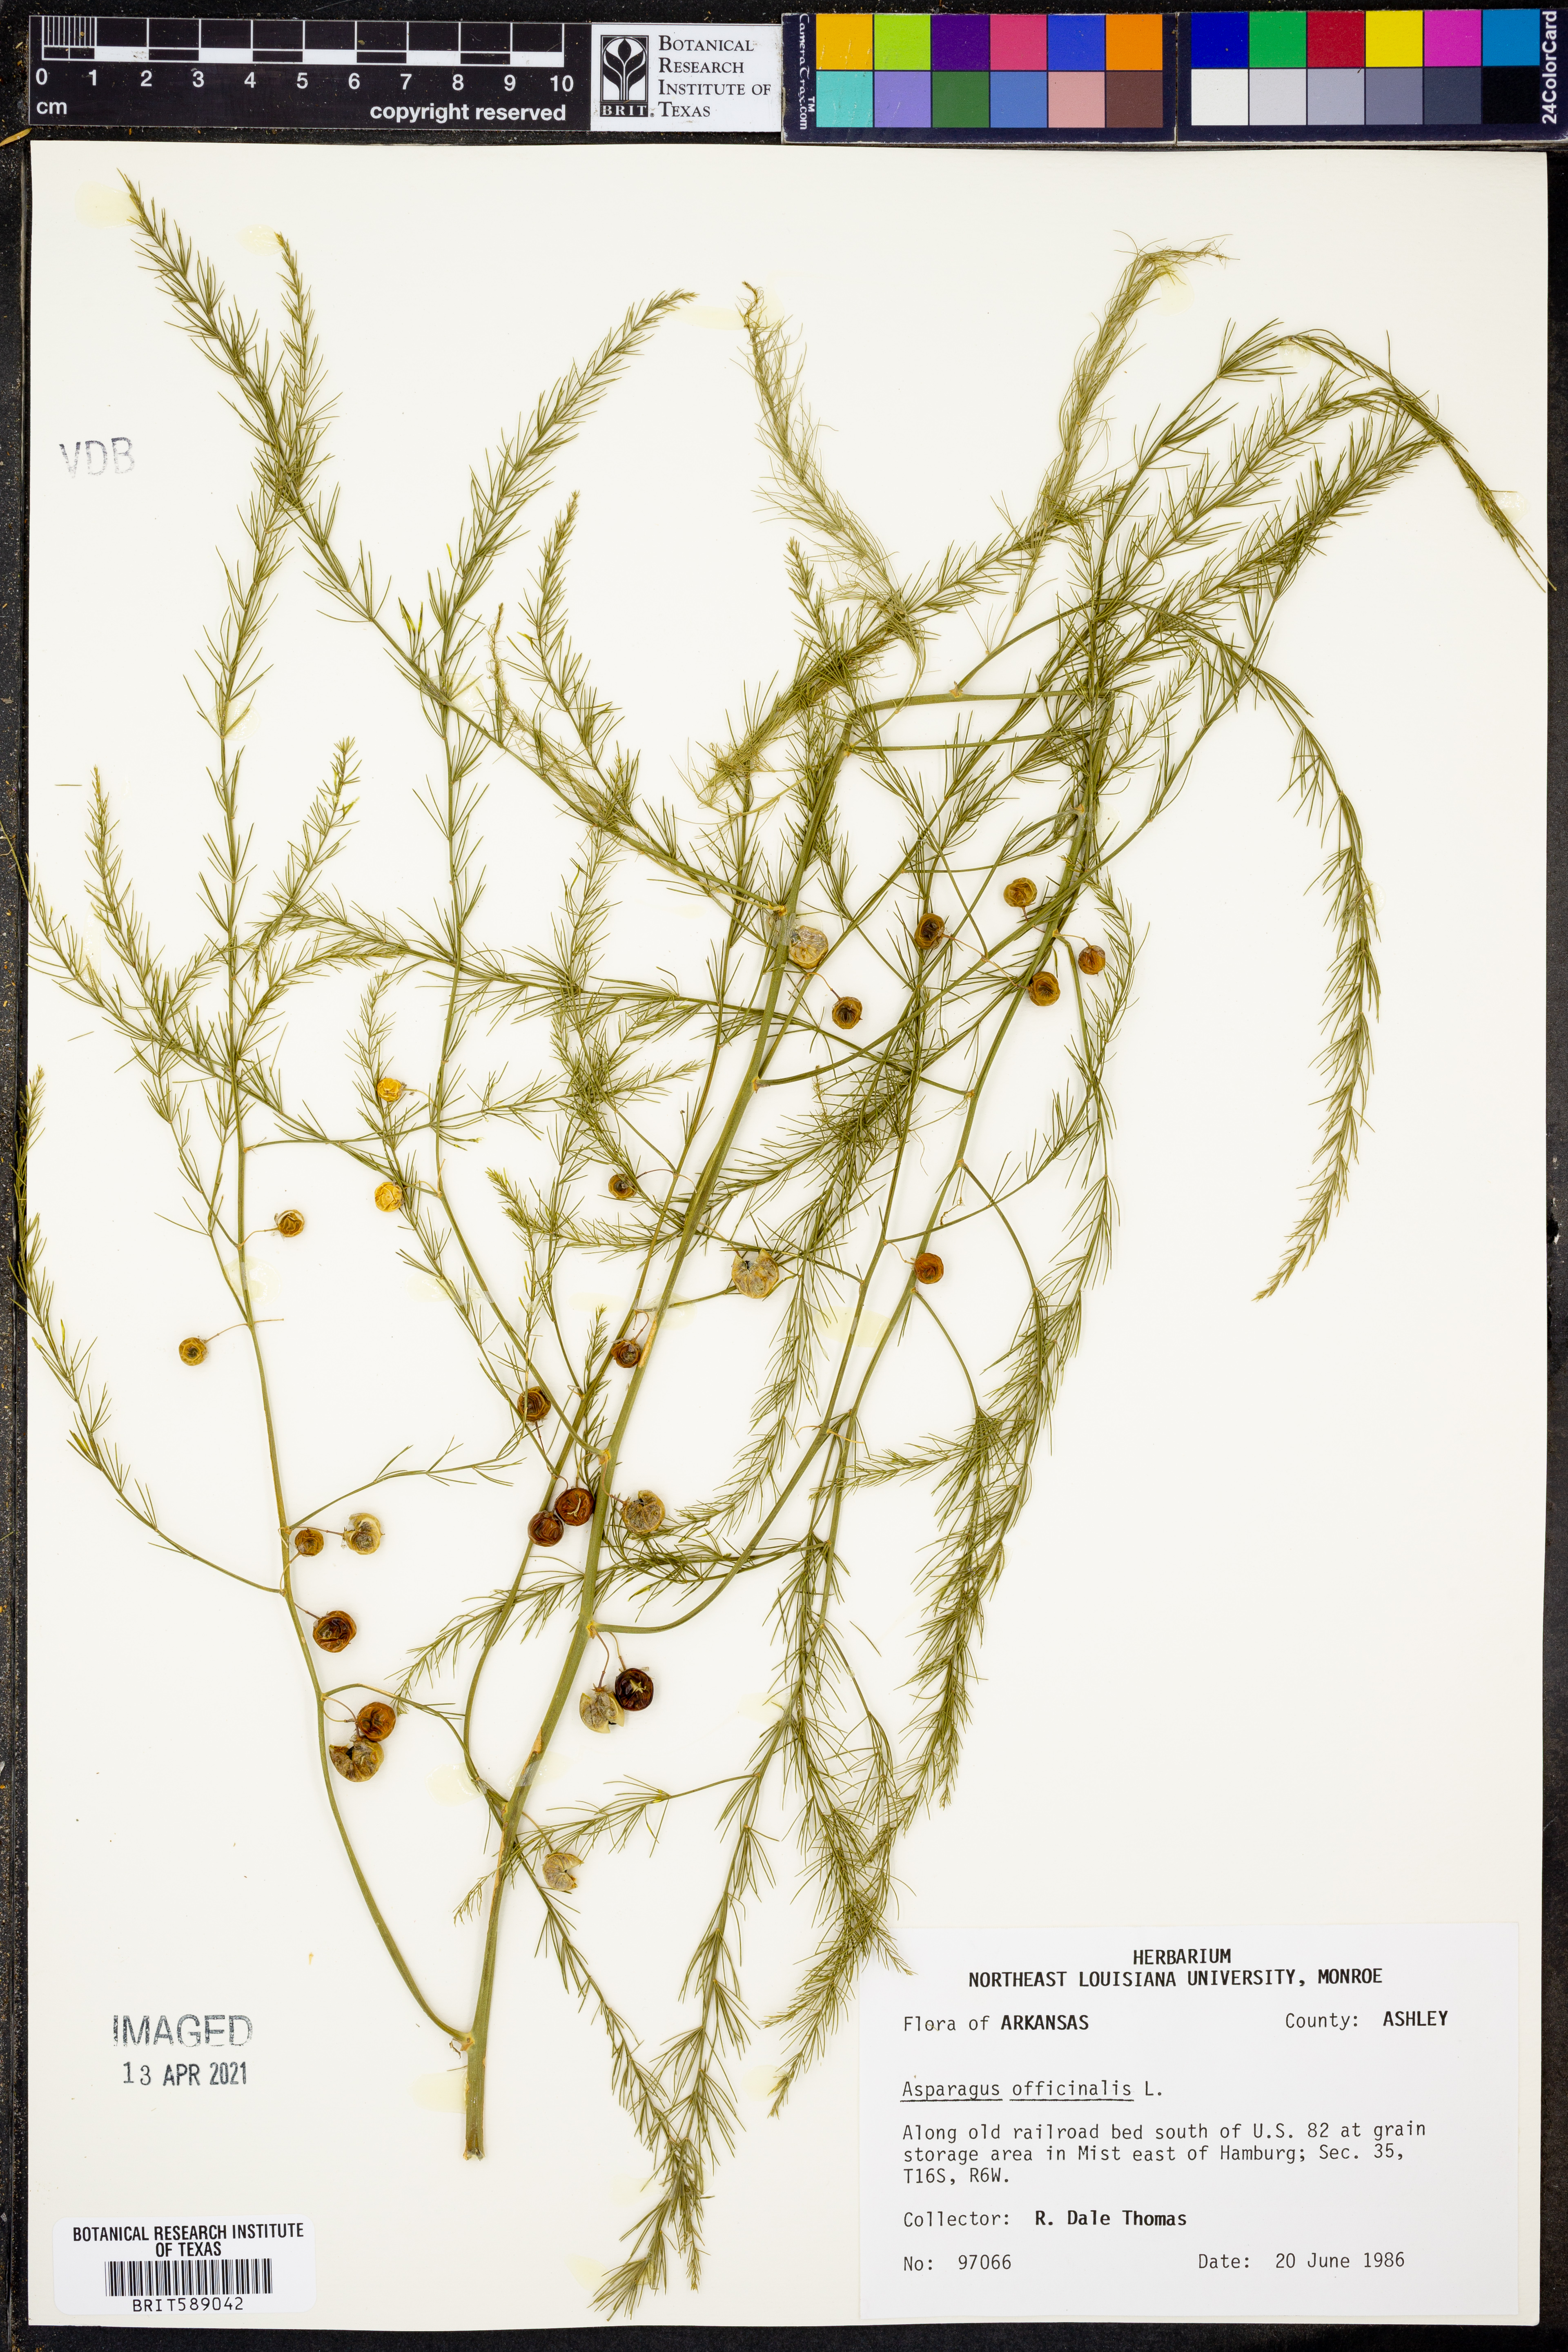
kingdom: Plantae
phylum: Tracheophyta
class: Liliopsida
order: Asparagales
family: Asparagaceae
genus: Asparagus
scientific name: Asparagus officinalis
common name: Garden asparagus
